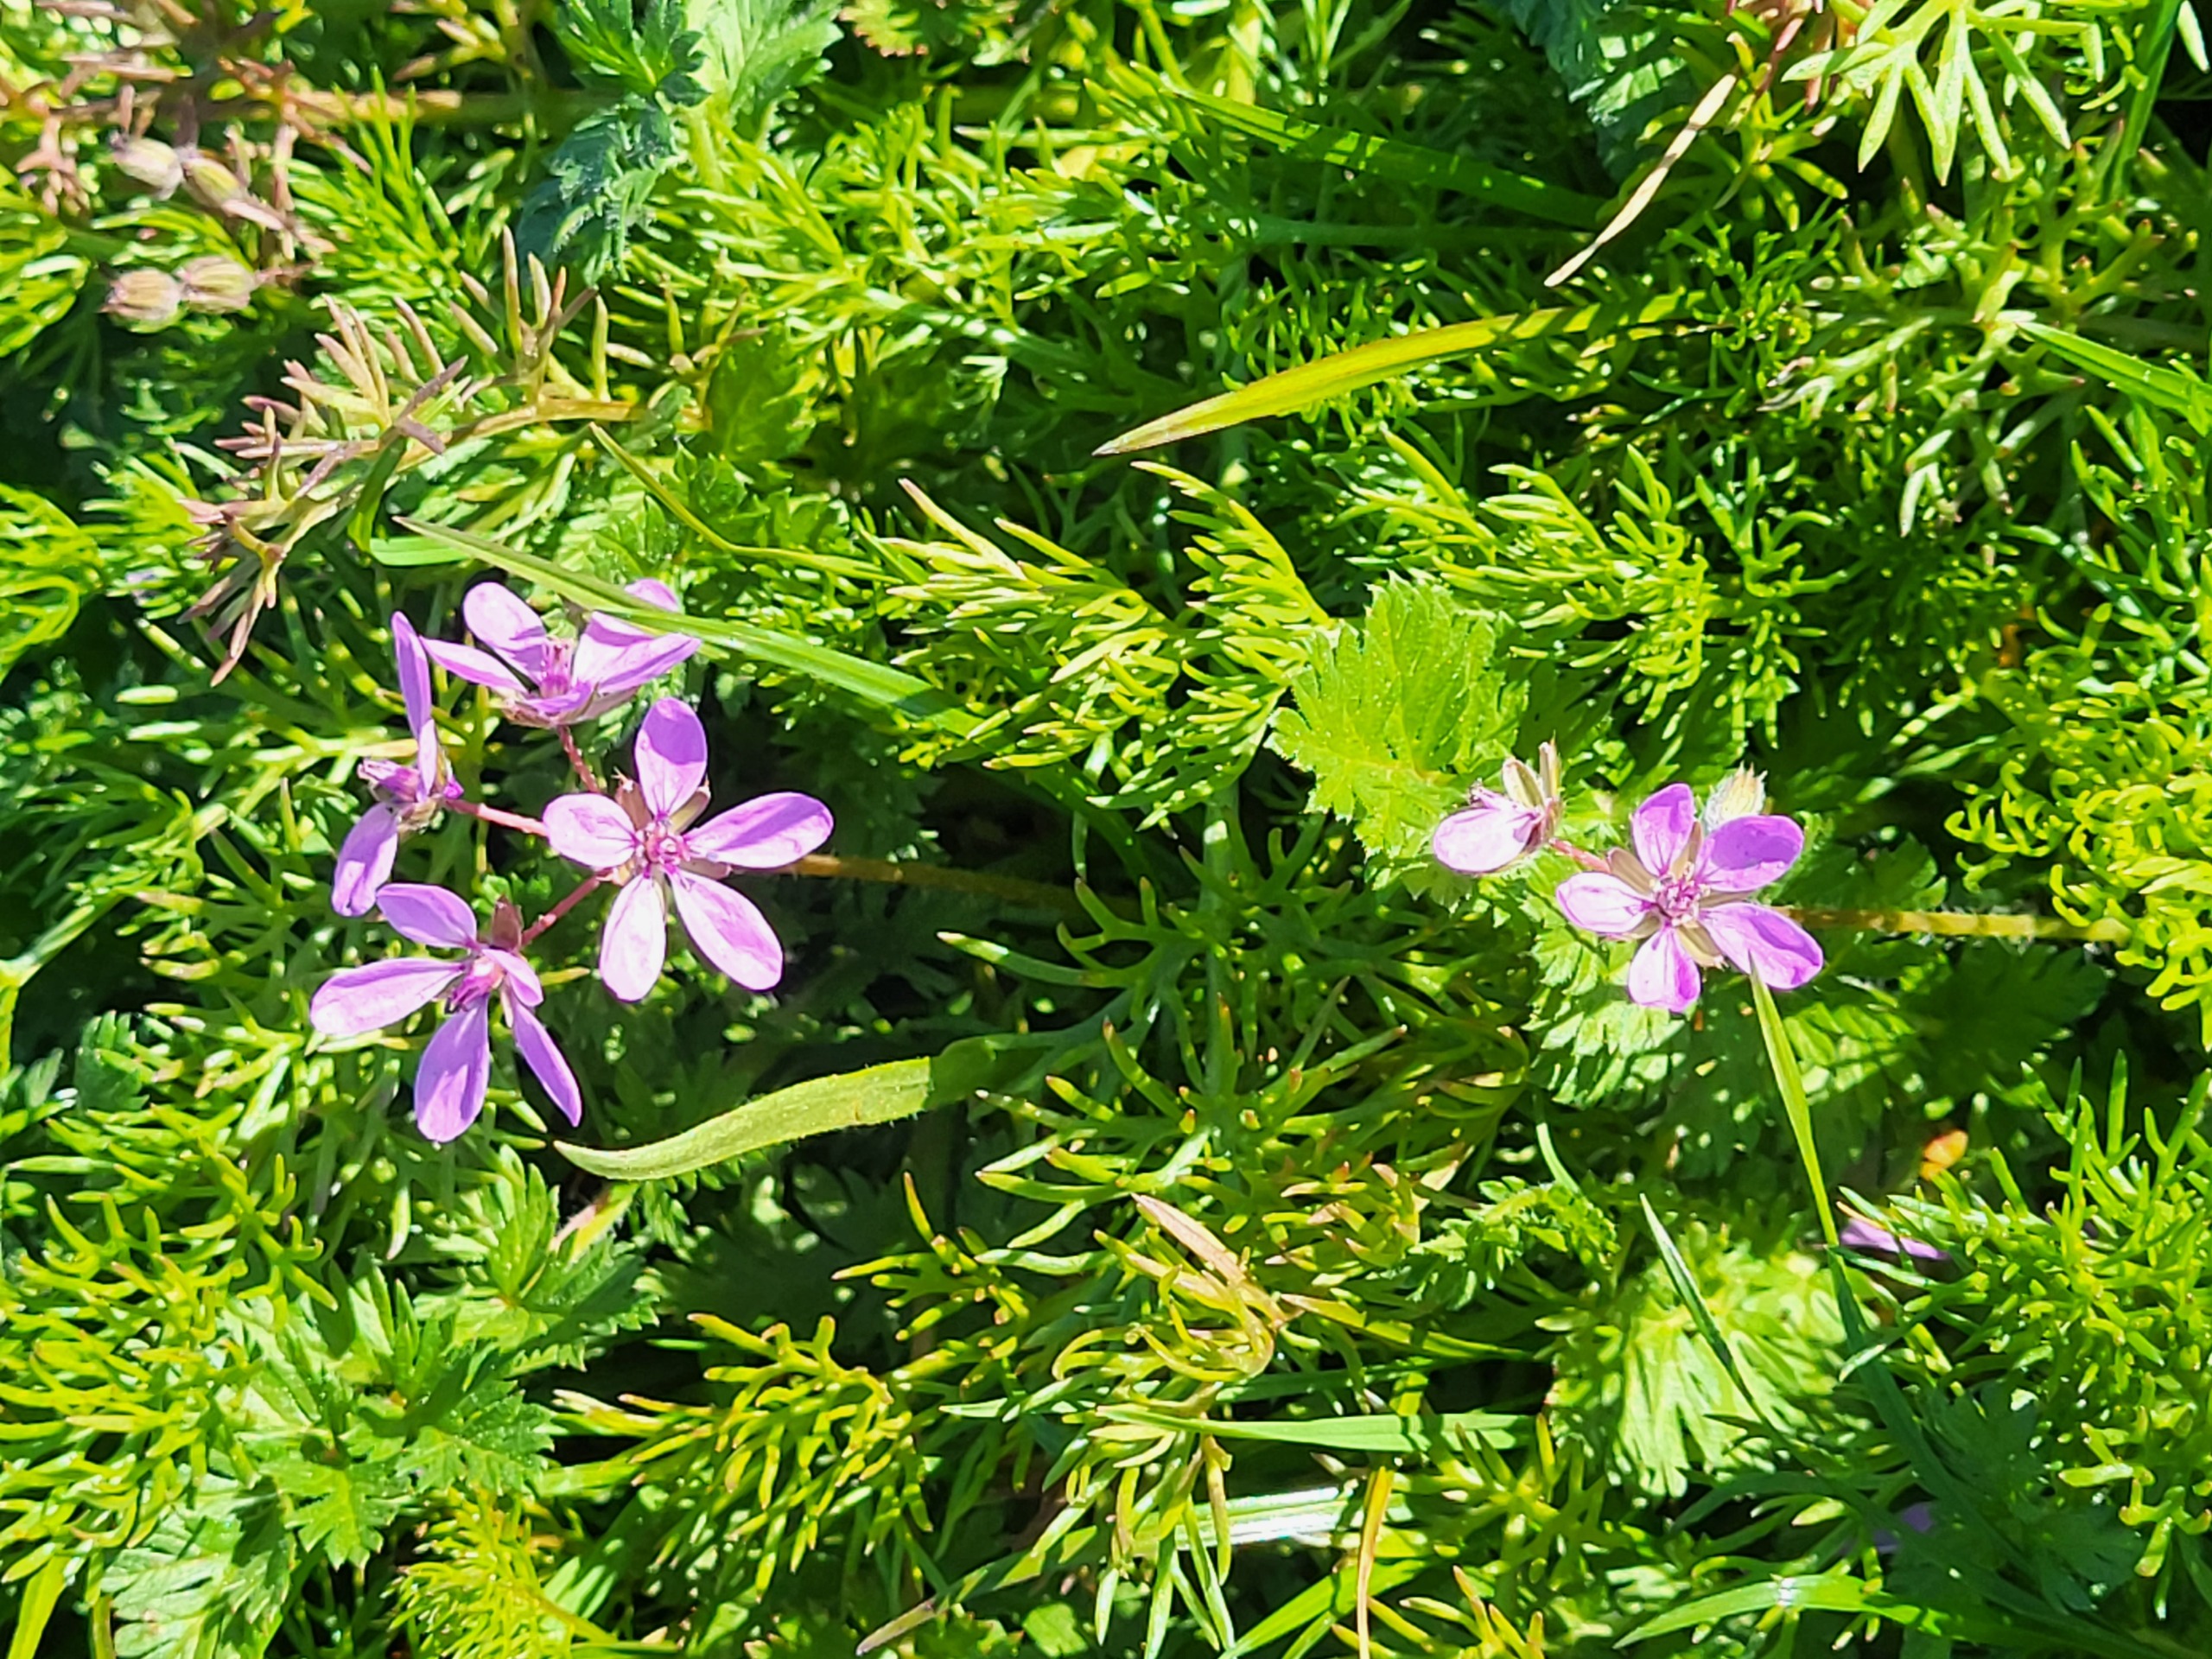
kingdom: Plantae
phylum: Tracheophyta
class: Magnoliopsida
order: Geraniales
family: Geraniaceae
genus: Erodium
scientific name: Erodium cicutarium
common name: Hejrenæb
